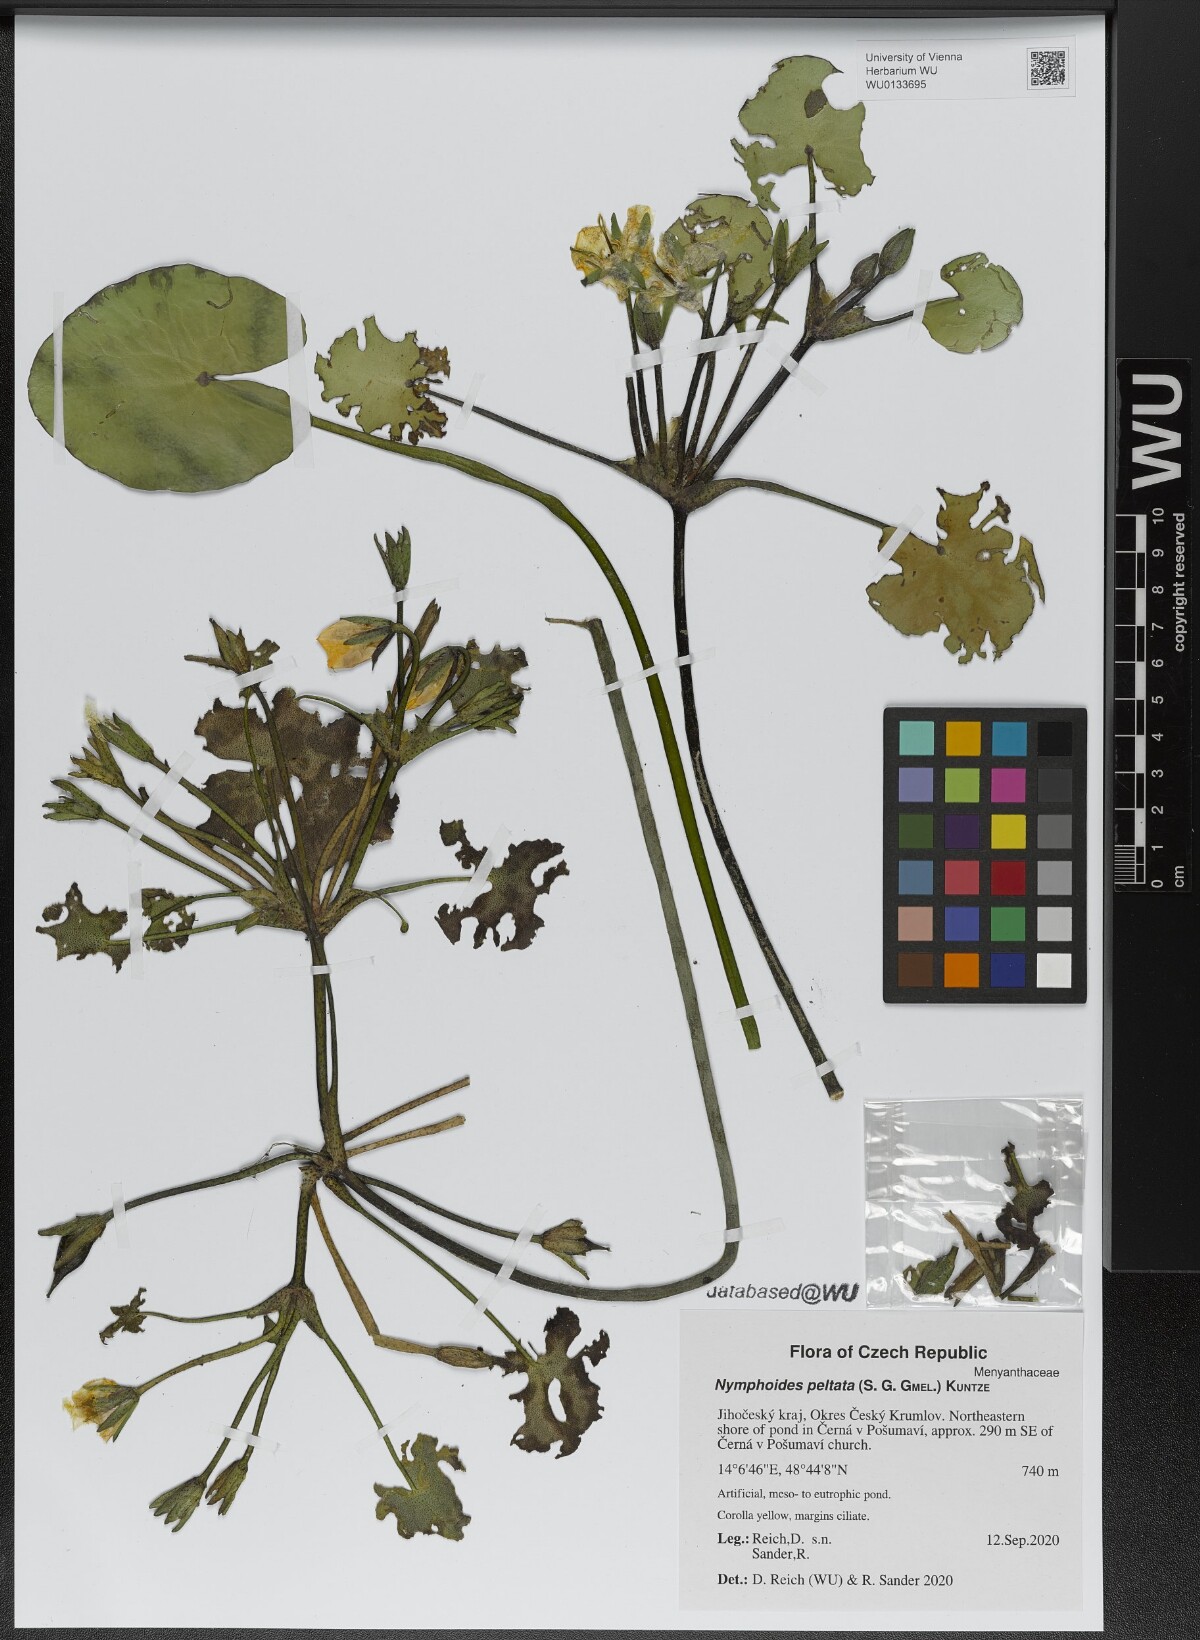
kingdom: Plantae
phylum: Tracheophyta
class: Magnoliopsida
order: Asterales
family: Menyanthaceae
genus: Nymphoides
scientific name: Nymphoides peltata
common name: Fringed water-lily
